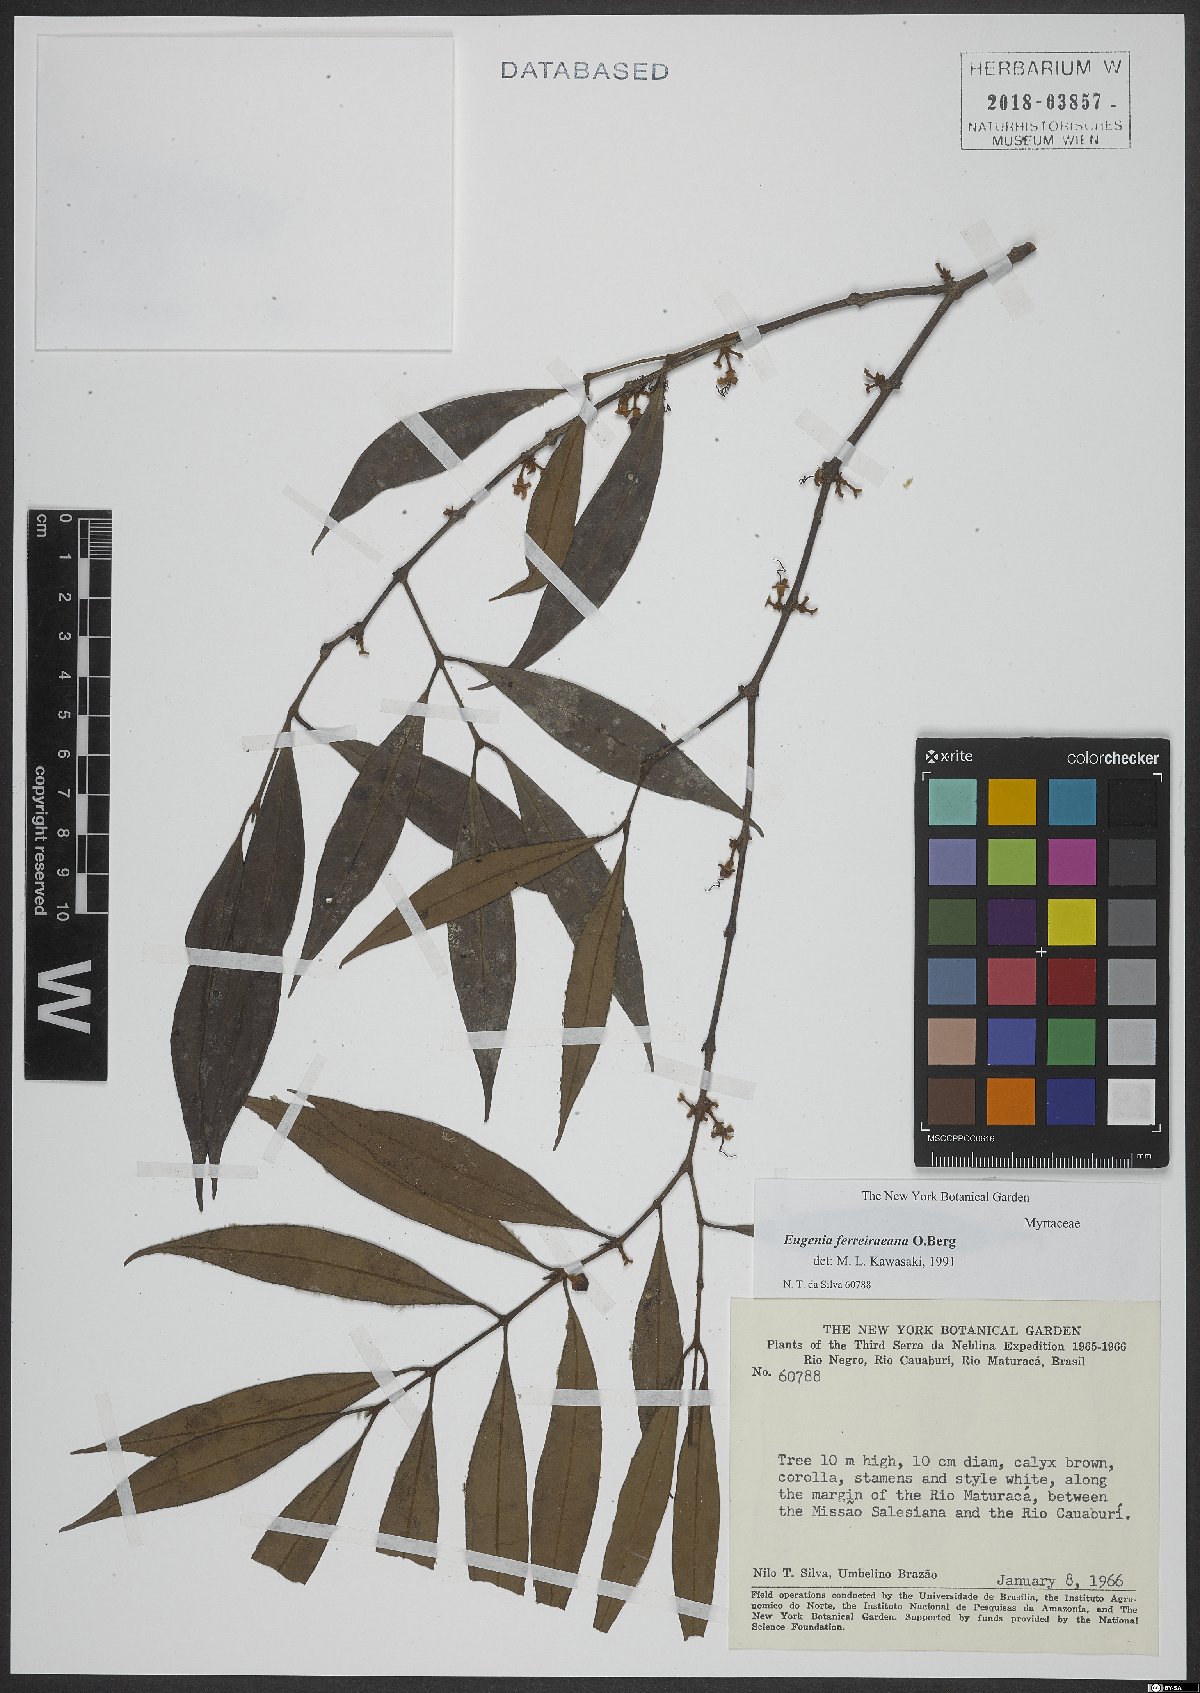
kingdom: Plantae
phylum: Tracheophyta
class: Magnoliopsida
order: Myrtales
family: Myrtaceae
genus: Eugenia
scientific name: Eugenia ferreiraeana
